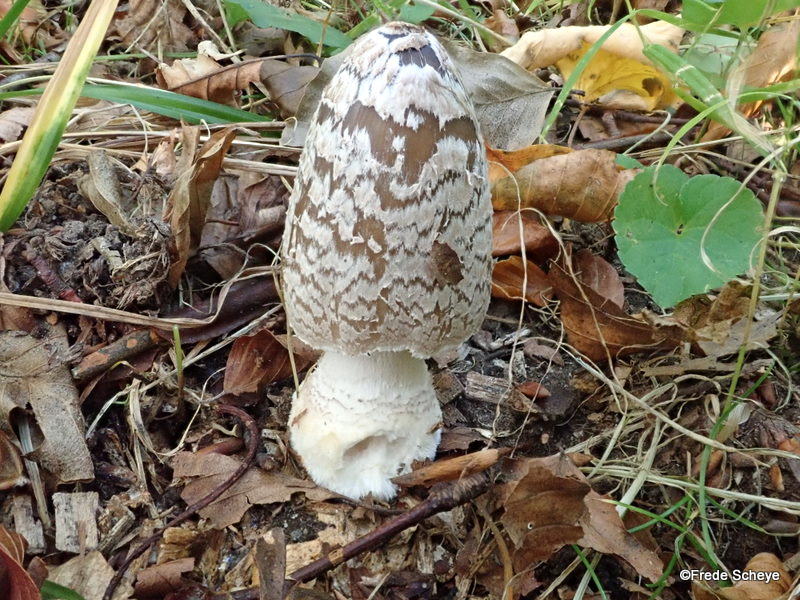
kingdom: Fungi
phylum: Basidiomycota
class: Agaricomycetes
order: Agaricales
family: Psathyrellaceae
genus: Coprinopsis
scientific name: Coprinopsis picacea
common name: skade-blækhat
